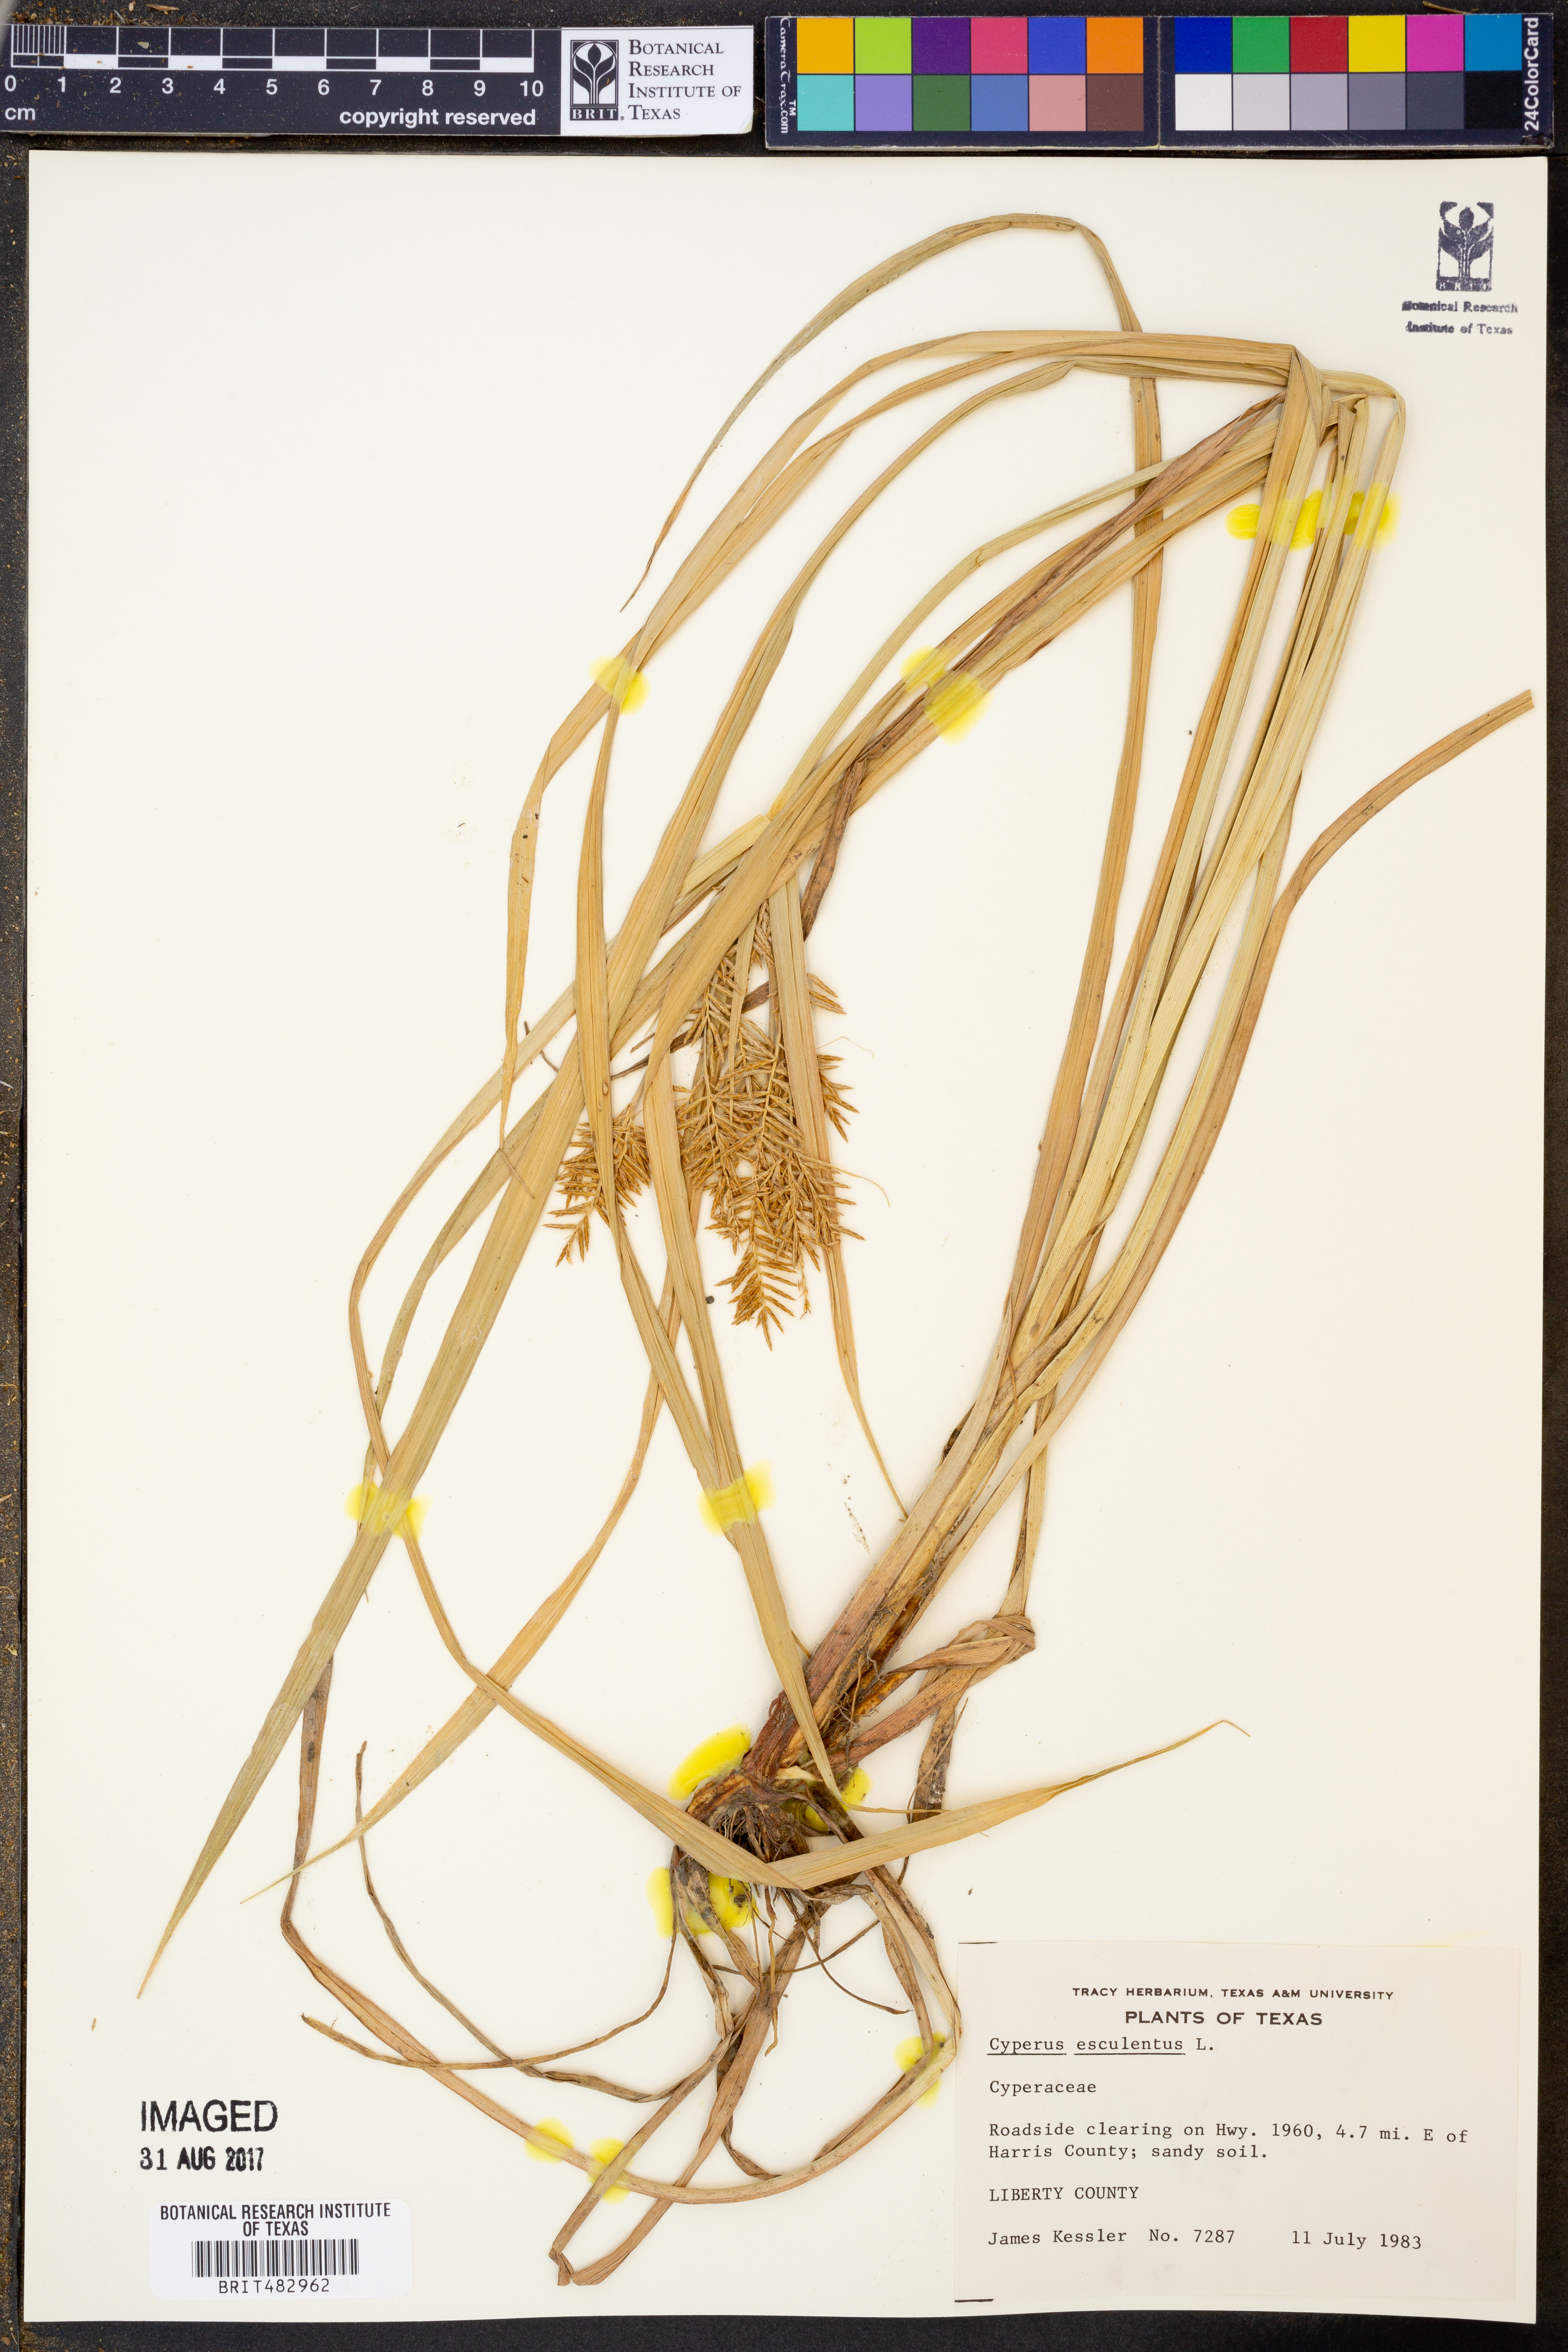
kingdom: Plantae
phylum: Tracheophyta
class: Liliopsida
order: Poales
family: Cyperaceae
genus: Cyperus
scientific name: Cyperus esculentus
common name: Yellow nutsedge
